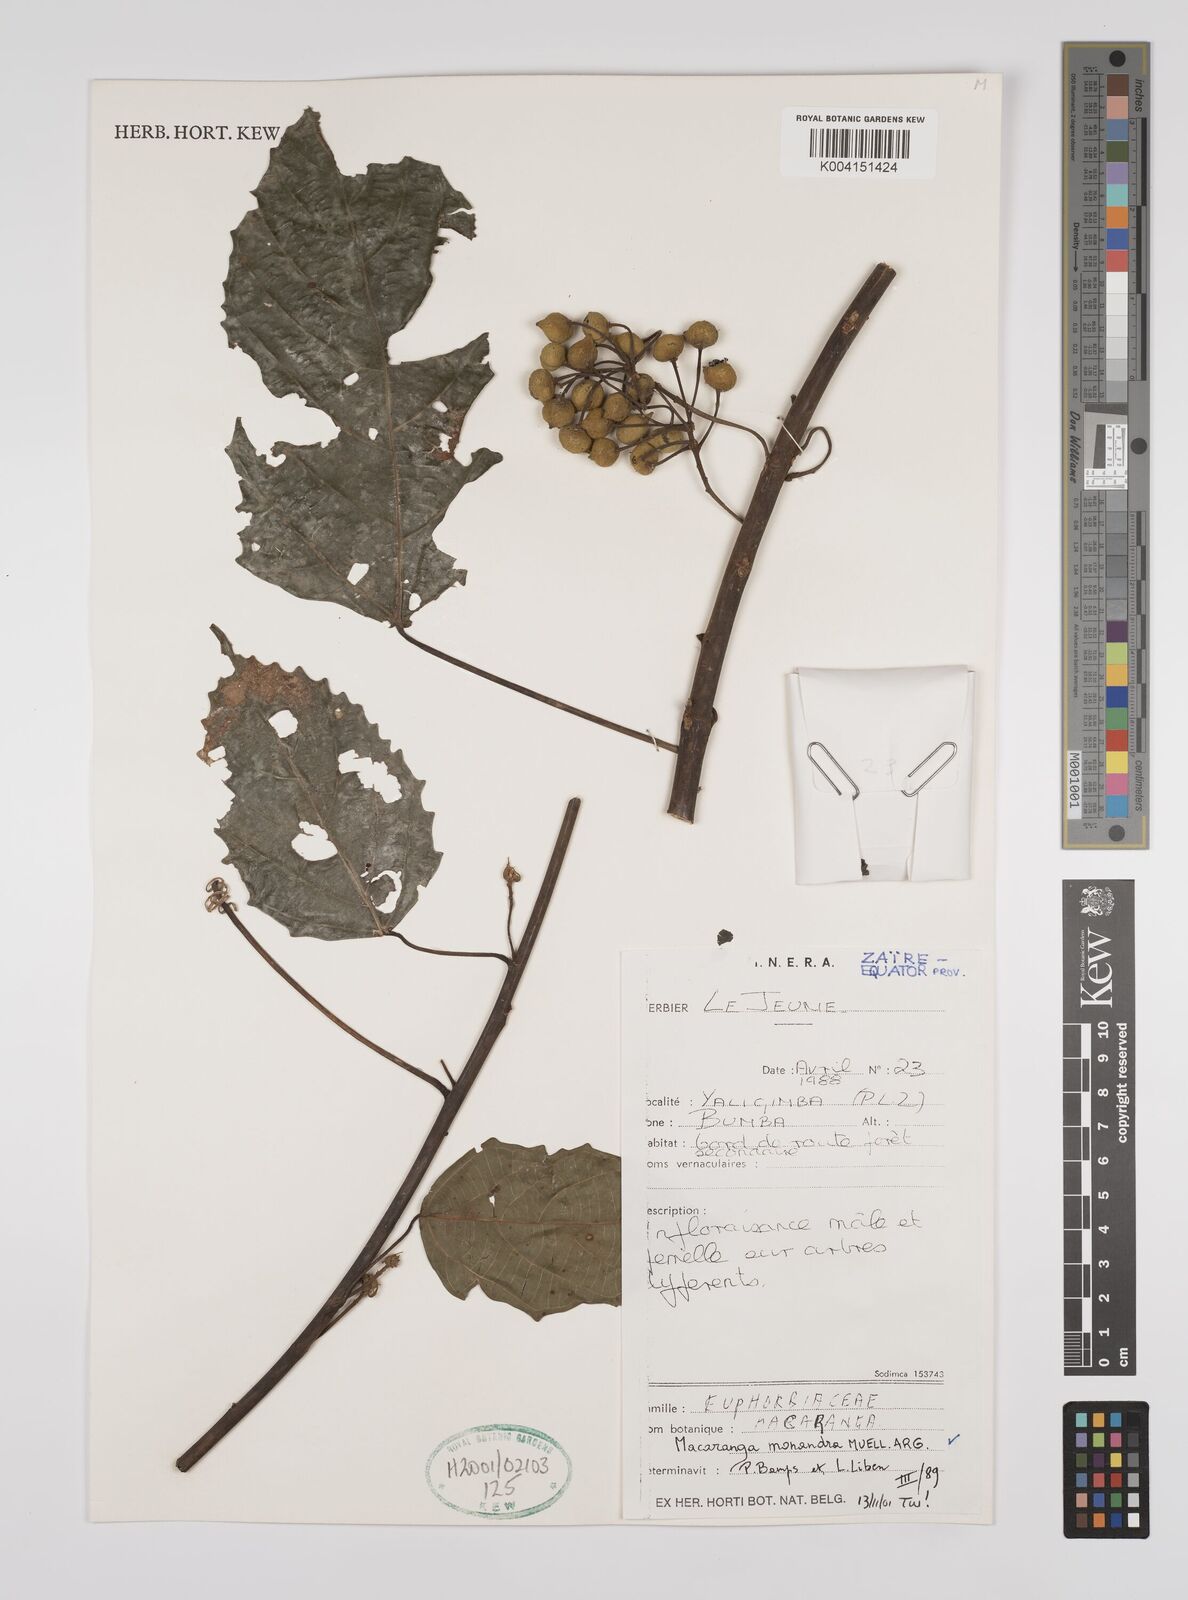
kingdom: Plantae
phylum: Tracheophyta
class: Magnoliopsida
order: Malpighiales
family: Euphorbiaceae
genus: Macaranga
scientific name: Macaranga monandra
